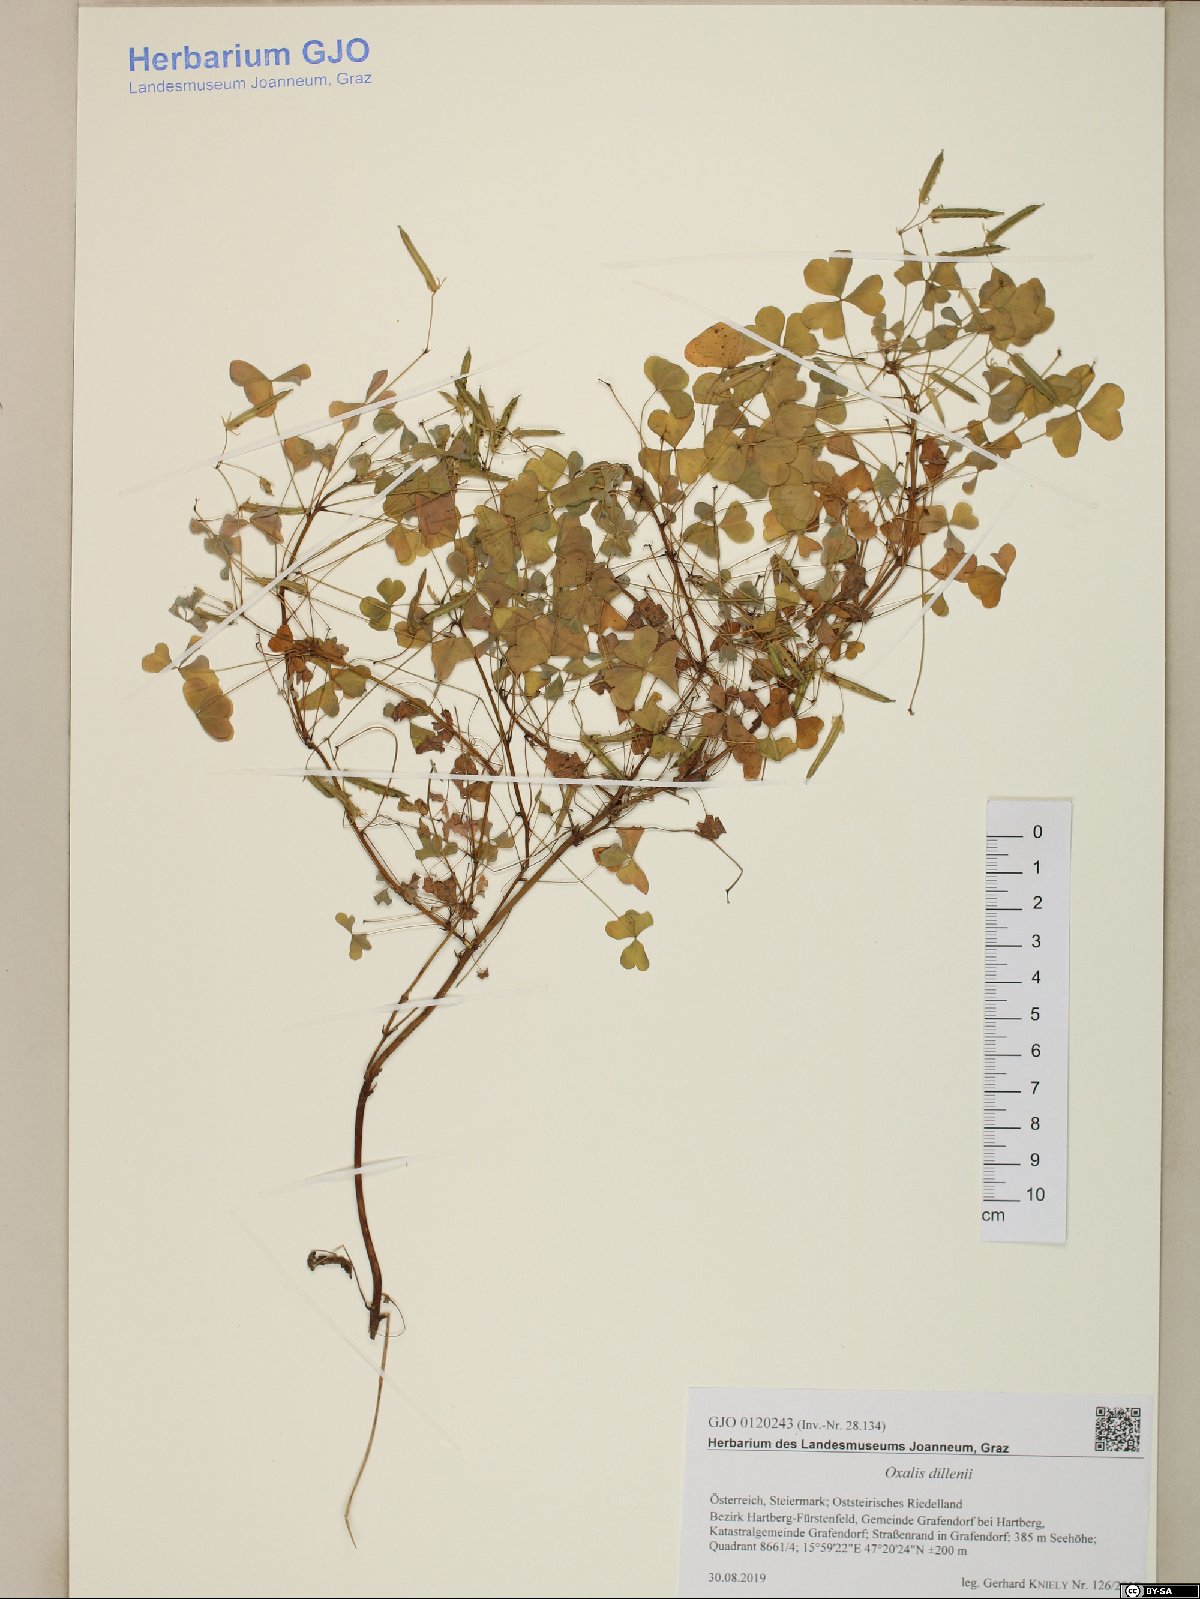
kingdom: Plantae
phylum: Tracheophyta
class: Magnoliopsida
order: Oxalidales
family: Oxalidaceae
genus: Oxalis
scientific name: Oxalis dillenii
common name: Sussex yellow-sorrel
